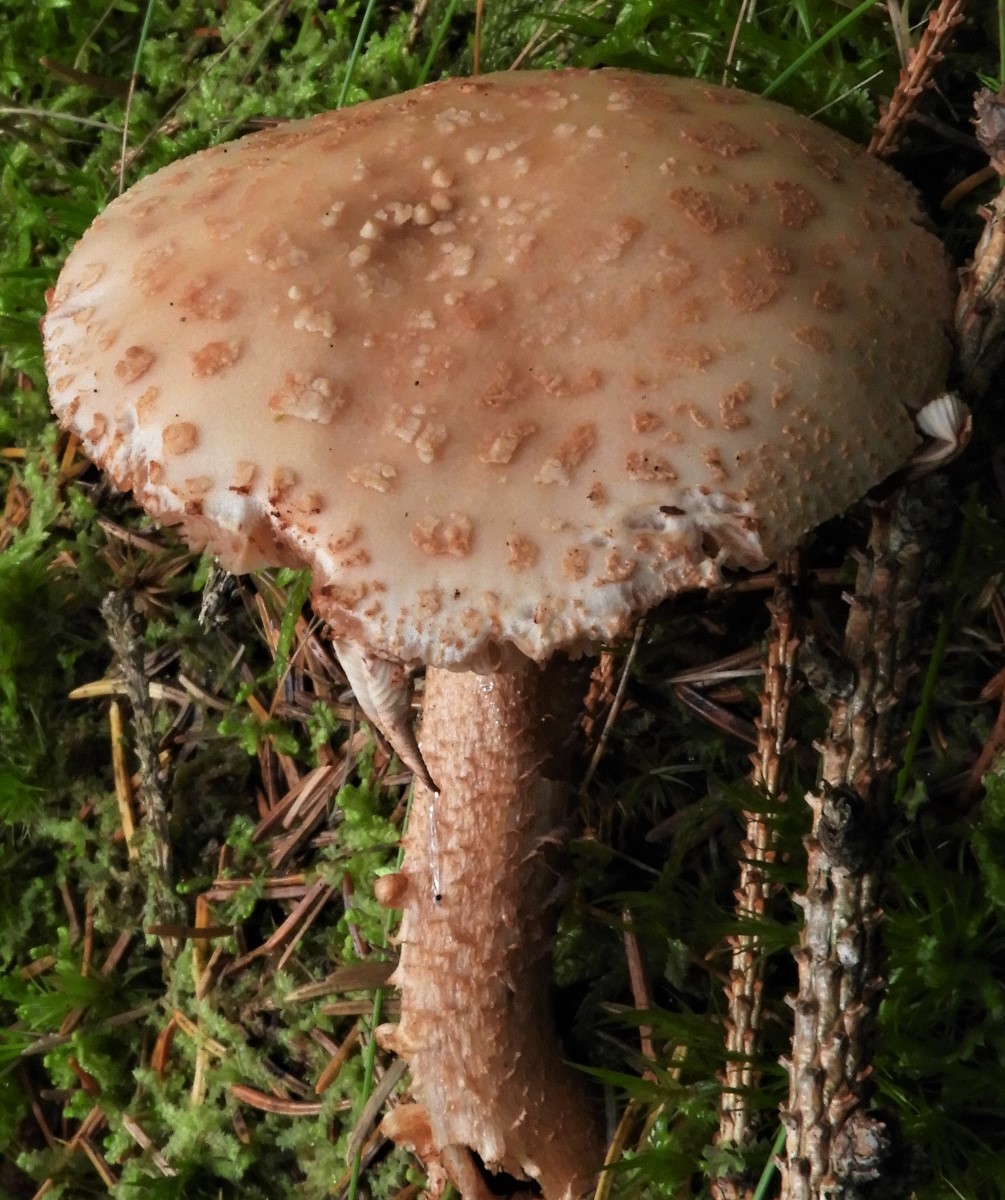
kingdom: Fungi
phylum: Basidiomycota
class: Agaricomycetes
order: Agaricales
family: Amanitaceae
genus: Amanita
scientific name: Amanita rubescens
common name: rødmende fluesvamp
